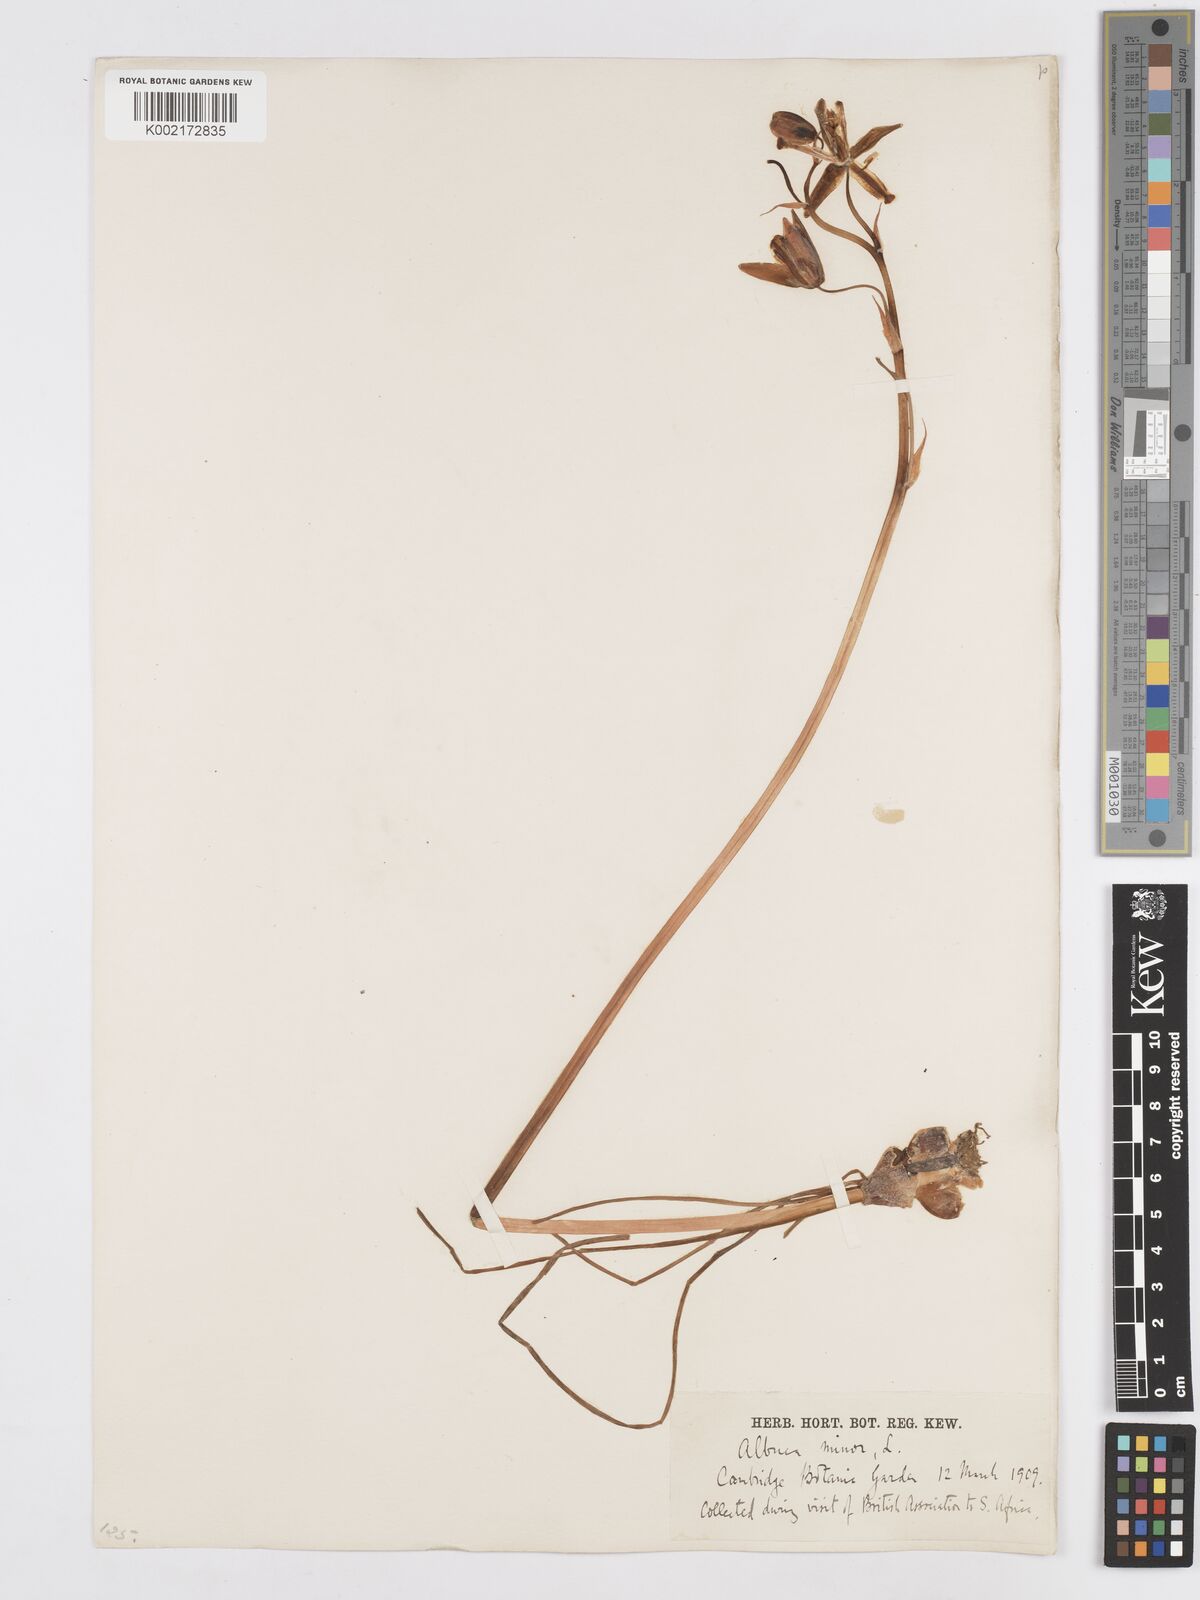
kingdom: Plantae
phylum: Tracheophyta
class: Liliopsida
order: Asparagales
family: Asparagaceae
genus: Albuca
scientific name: Albuca canadensis
